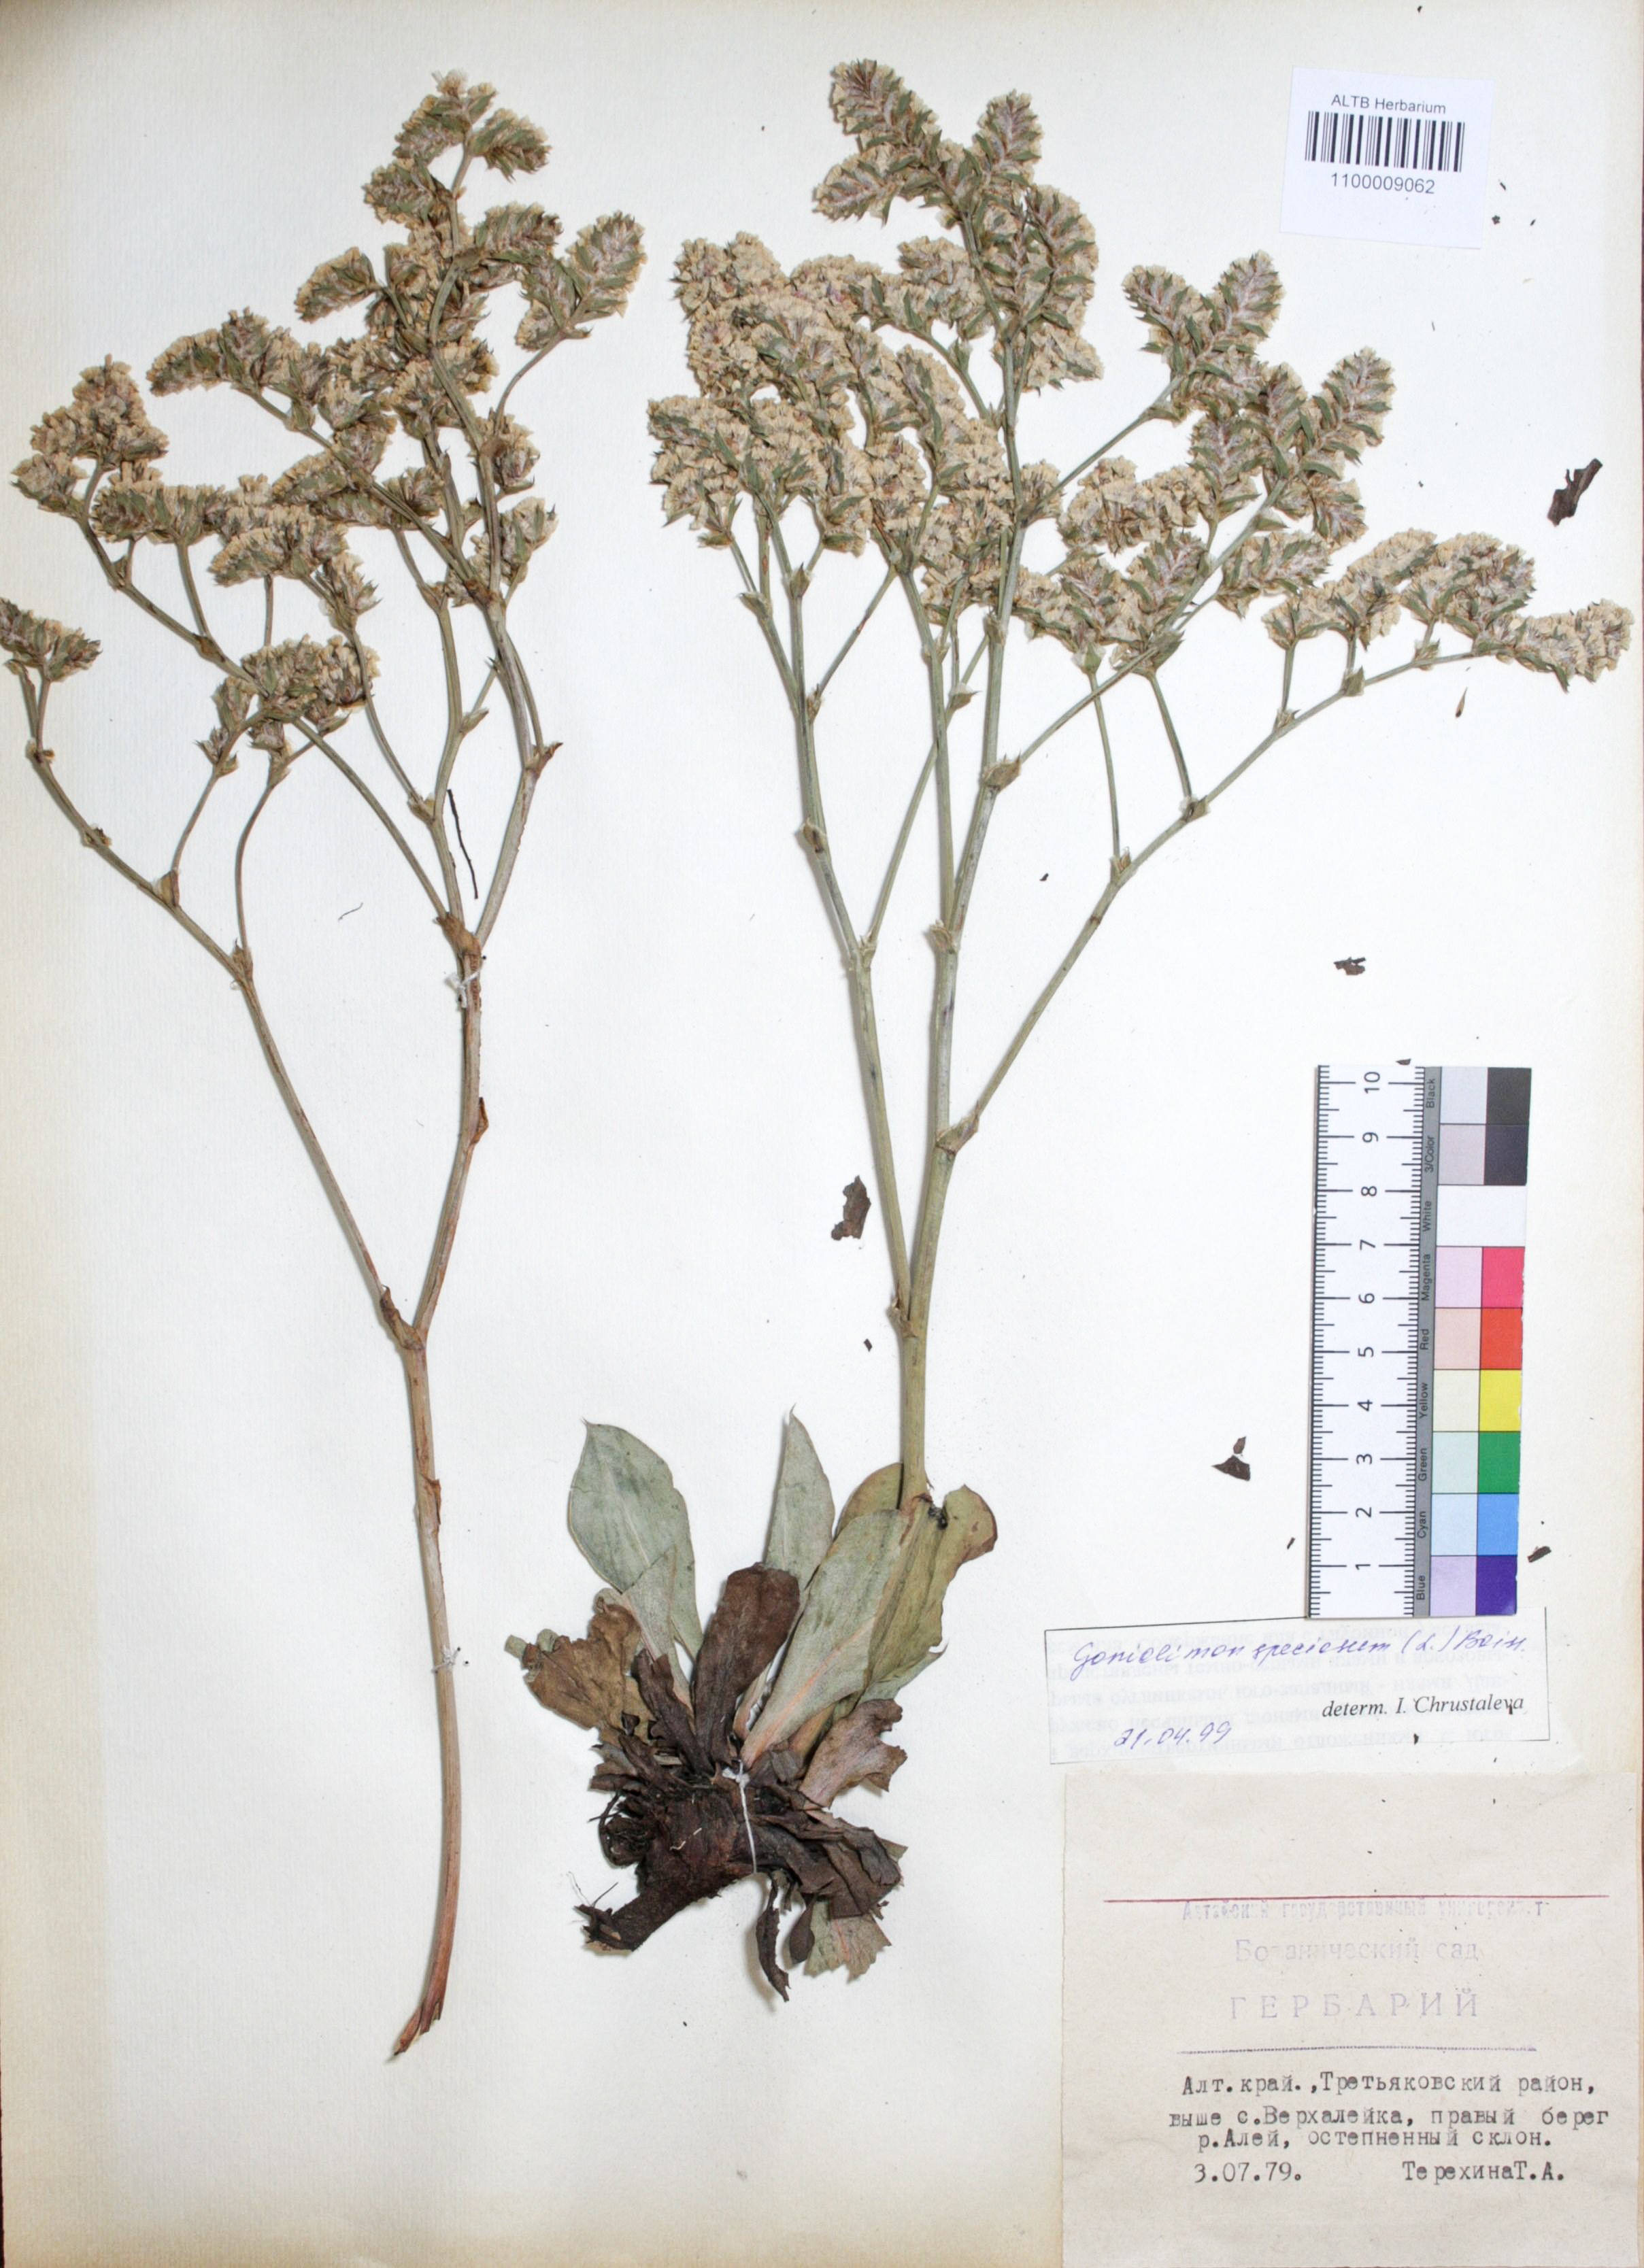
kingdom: Plantae
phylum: Tracheophyta
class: Magnoliopsida
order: Caryophyllales
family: Plumbaginaceae
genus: Goniolimon
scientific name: Goniolimon speciosum
